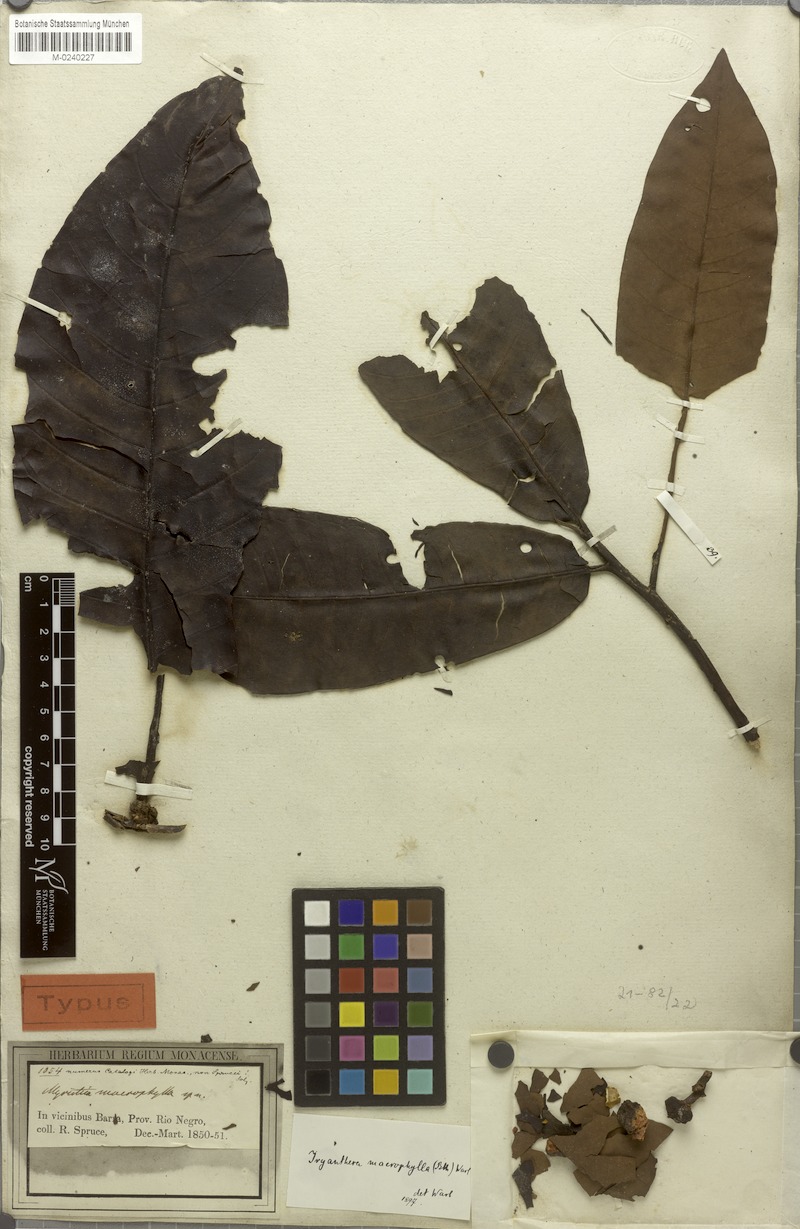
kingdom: Plantae
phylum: Tracheophyta
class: Magnoliopsida
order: Magnoliales
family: Myristicaceae
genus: Iryanthera
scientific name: Iryanthera macrophylla
